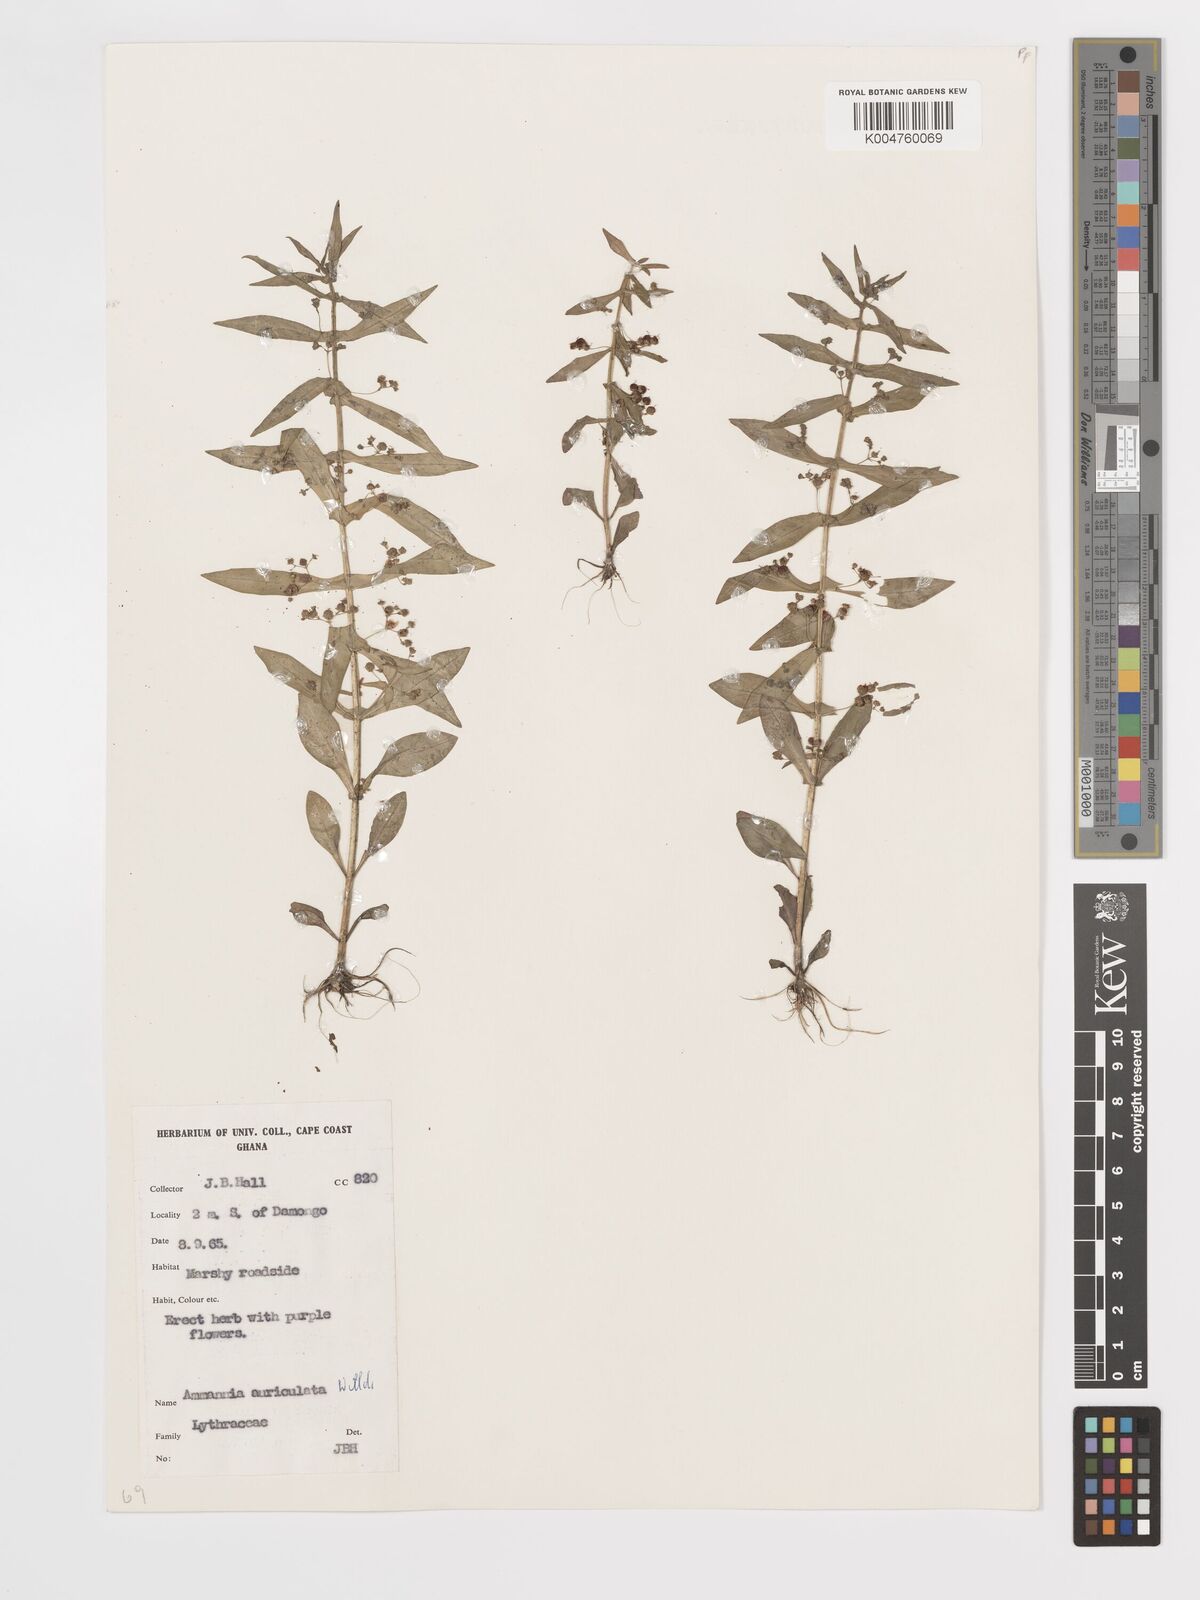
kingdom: Plantae
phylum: Tracheophyta
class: Magnoliopsida
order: Myrtales
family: Lythraceae
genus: Ammannia
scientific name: Ammannia auriculata
